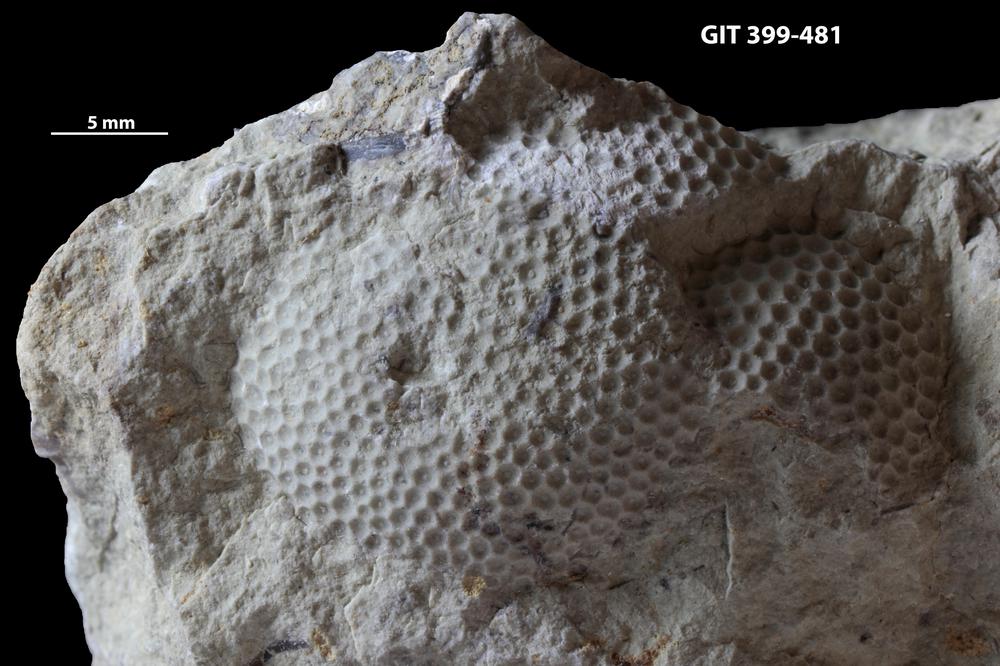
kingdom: Plantae
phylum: Chlorophyta
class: Ulvophyceae
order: Cyclocrinales
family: Cyclocrinaceae
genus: Mastopora
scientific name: Mastopora concava
